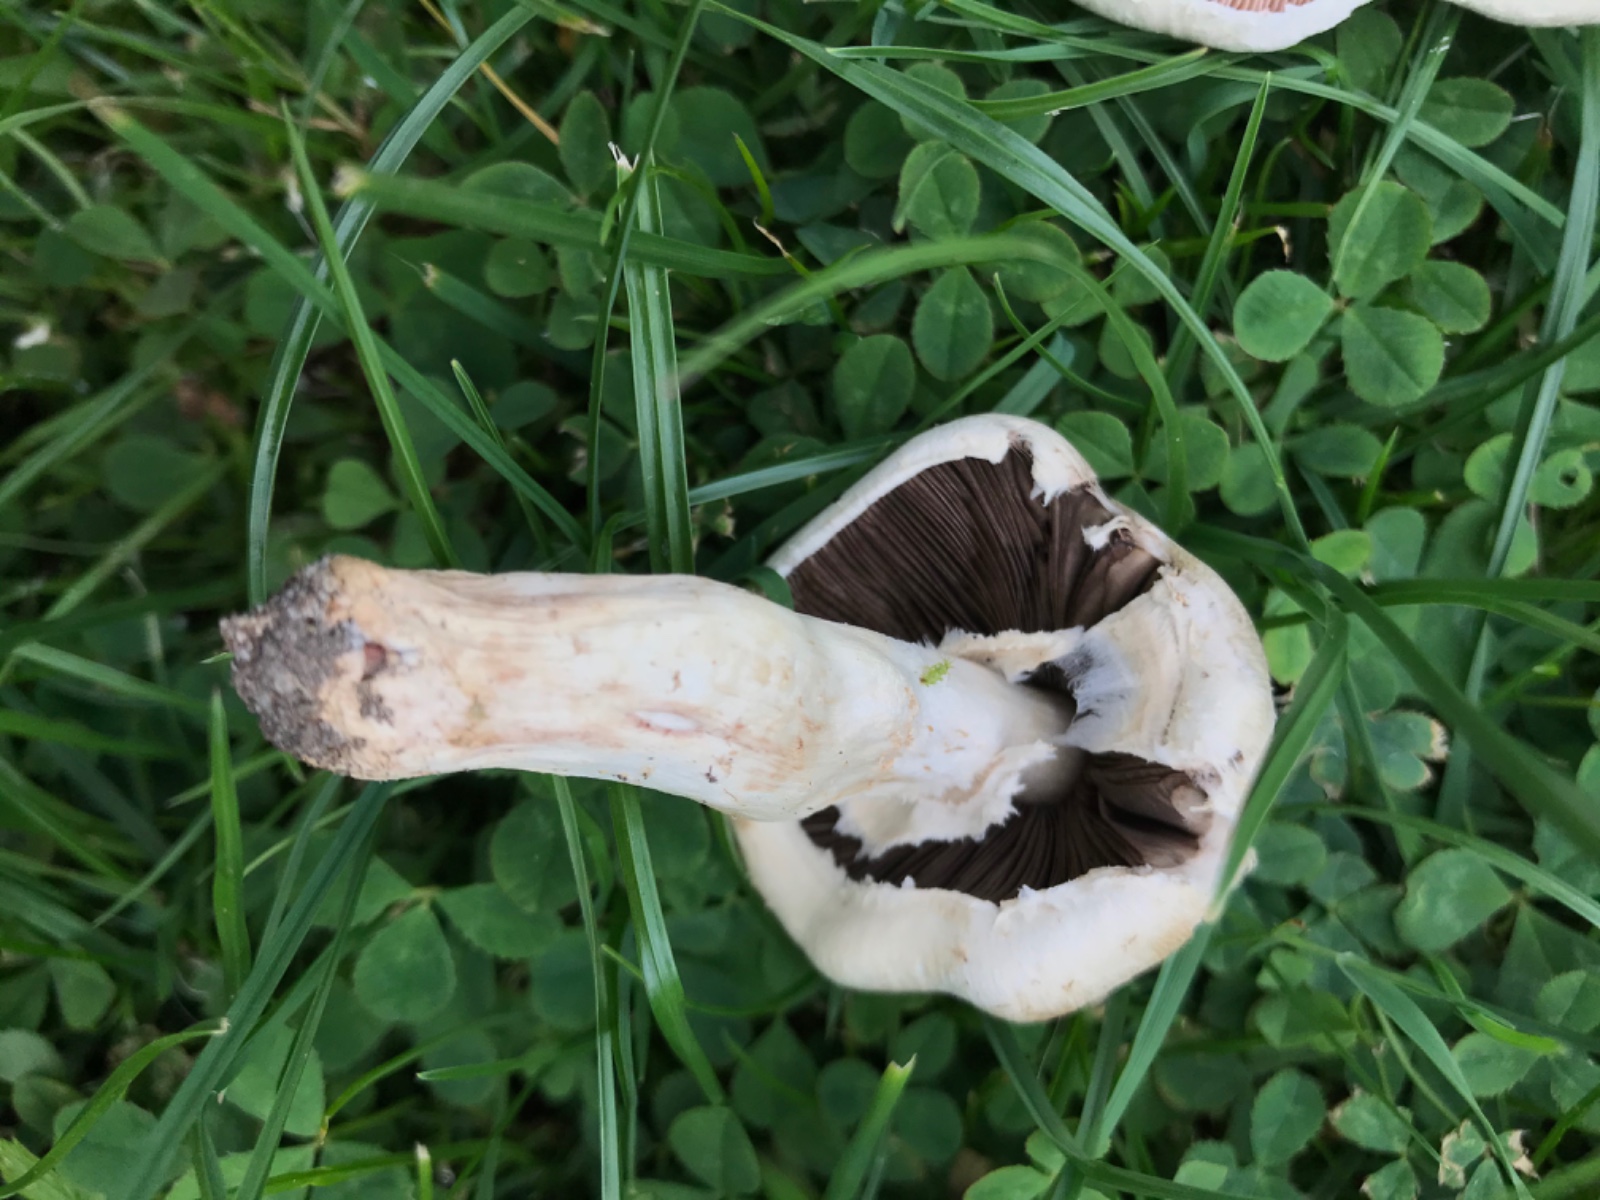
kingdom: Fungi
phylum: Basidiomycota
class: Agaricomycetes
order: Agaricales
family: Agaricaceae
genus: Agaricus
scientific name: Agaricus
